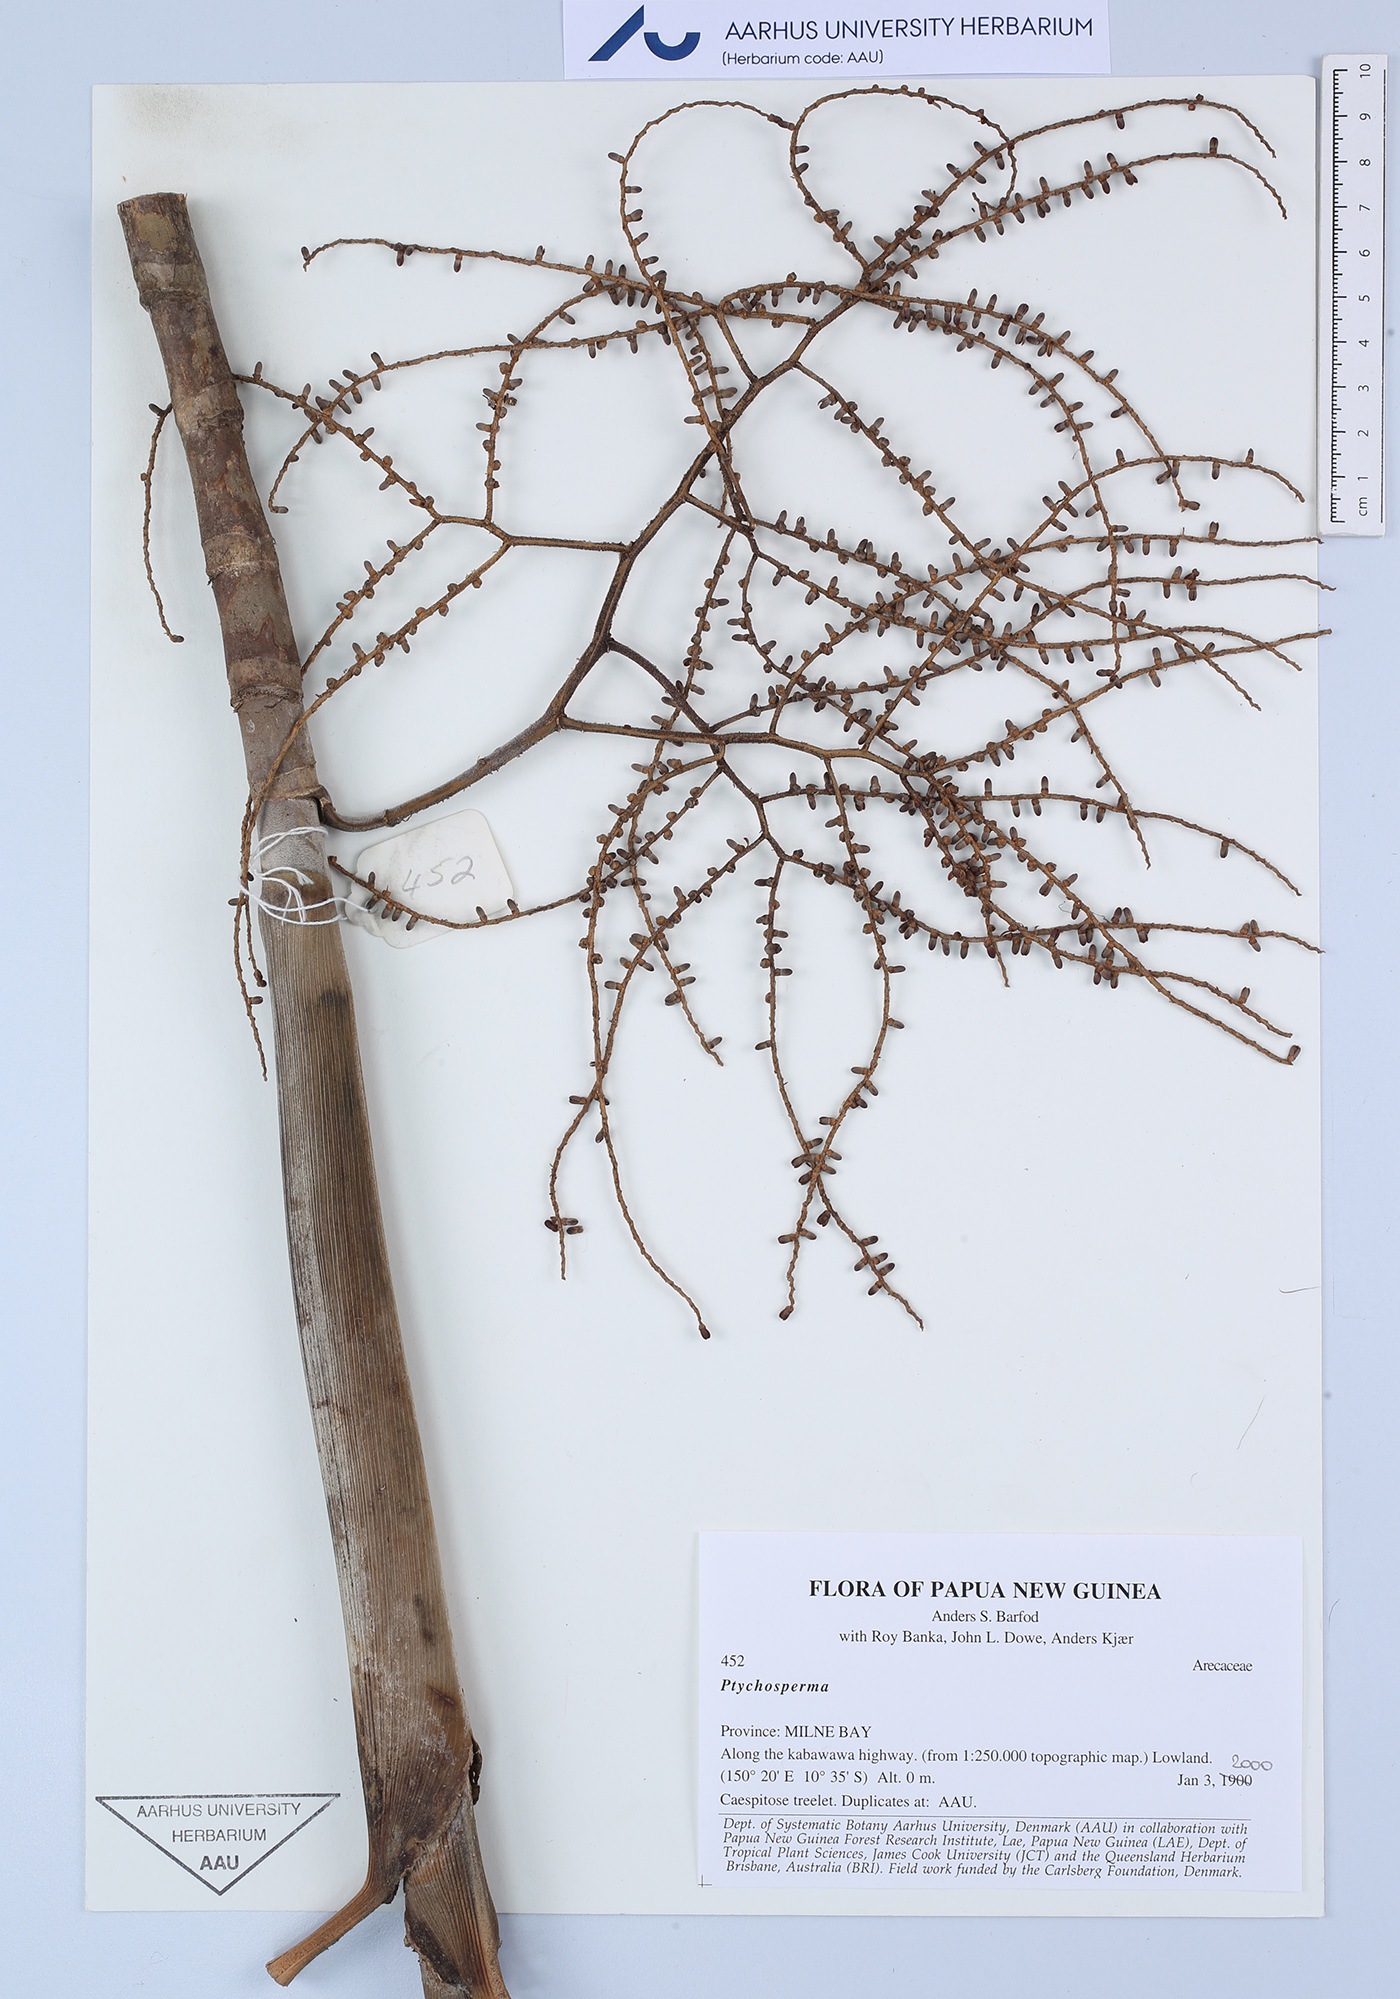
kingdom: Plantae
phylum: Tracheophyta
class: Liliopsida
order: Arecales
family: Arecaceae
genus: Ptychosperma
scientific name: Ptychosperma
